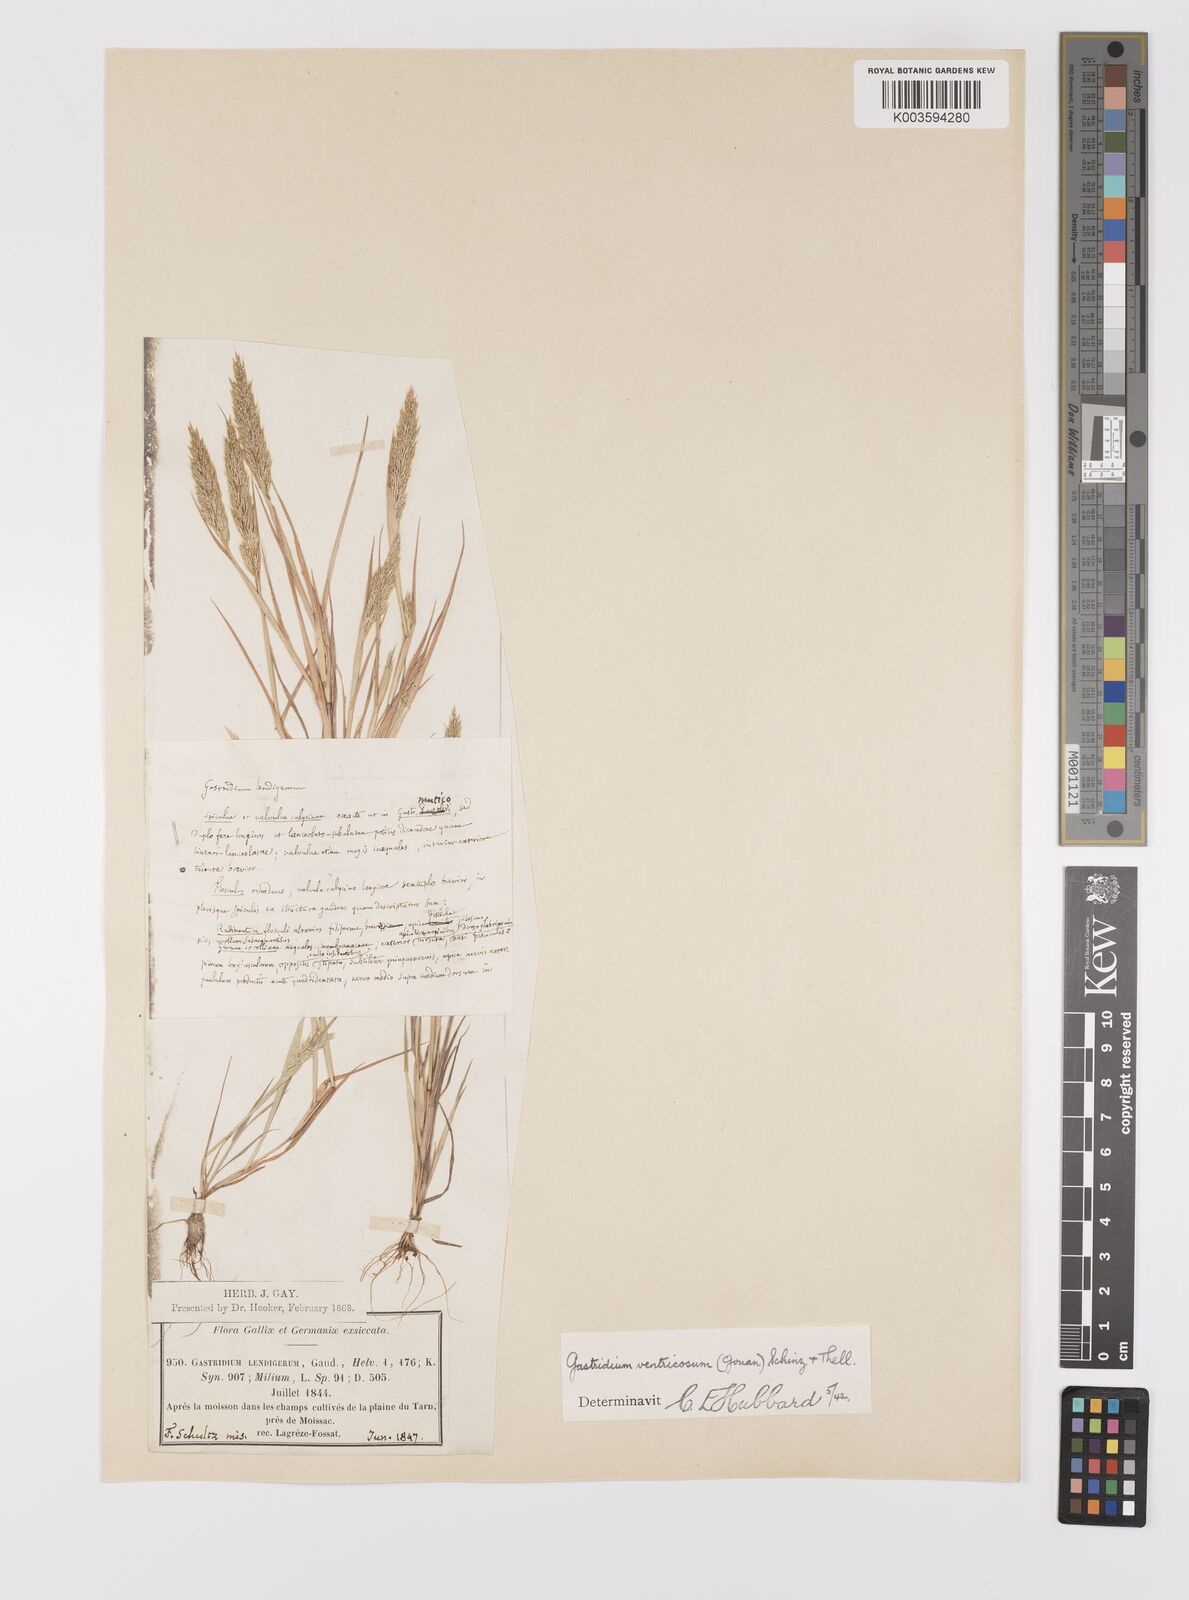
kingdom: Plantae
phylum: Tracheophyta
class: Liliopsida
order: Poales
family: Poaceae
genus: Gastridium
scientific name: Gastridium ventricosum
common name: Nit-grass
